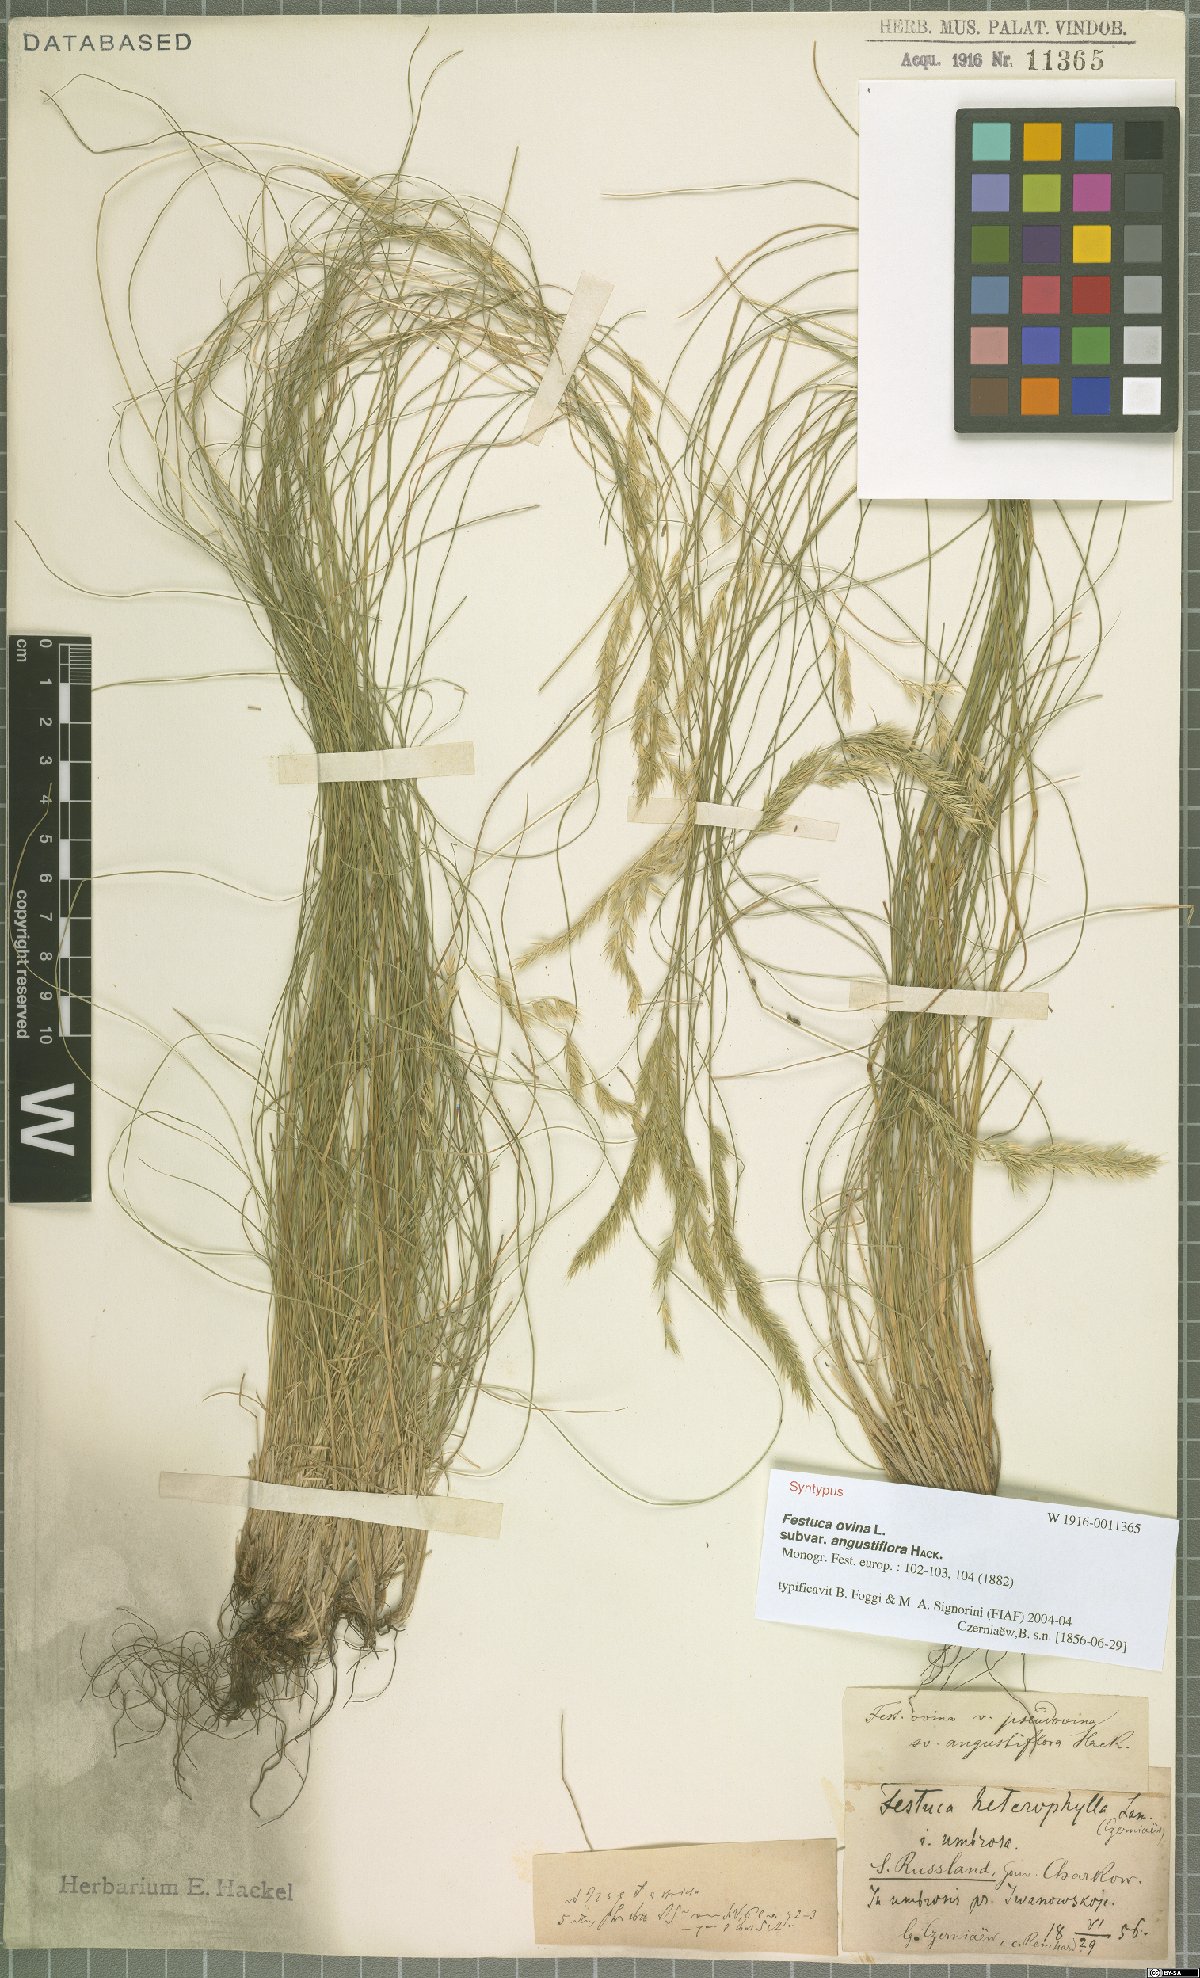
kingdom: Plantae
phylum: Tracheophyta
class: Liliopsida
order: Poales
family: Poaceae
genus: Festuca
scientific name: Festuca ovina
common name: Sheep fescue
